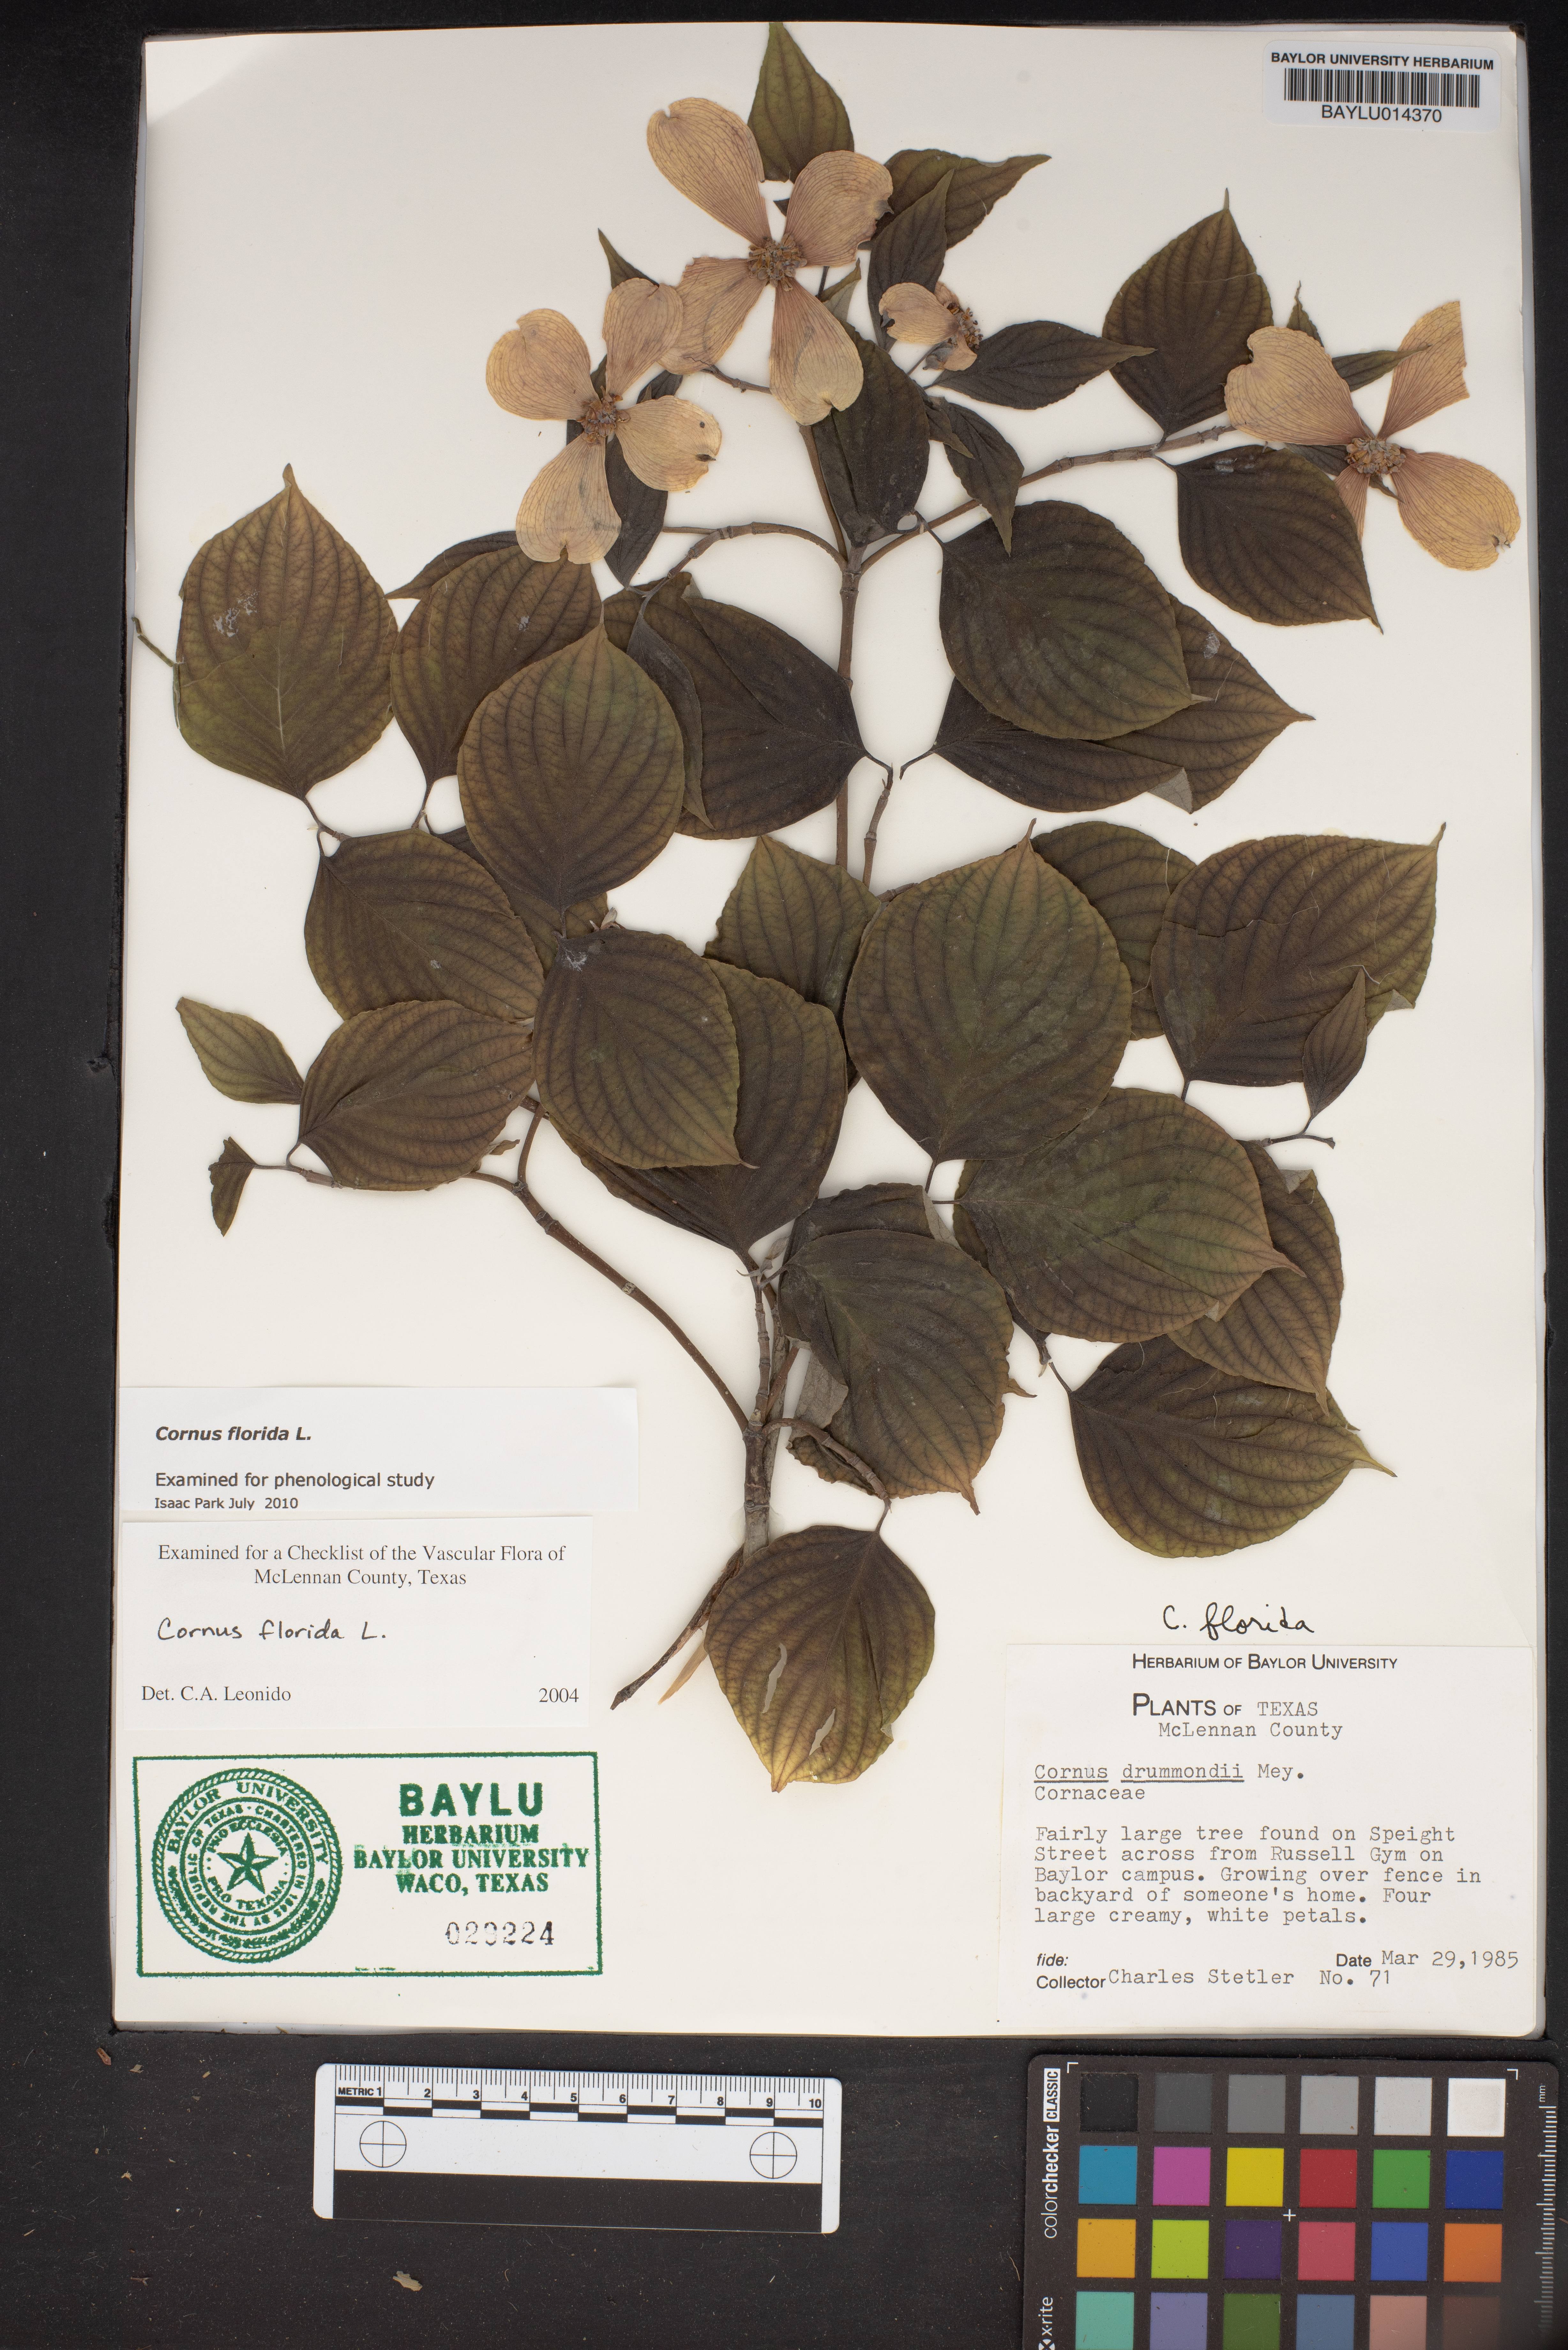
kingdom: Plantae
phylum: Tracheophyta
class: Magnoliopsida
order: Cornales
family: Cornaceae
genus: Cornus
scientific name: Cornus drummondii
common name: Rough-leaf dogwood
